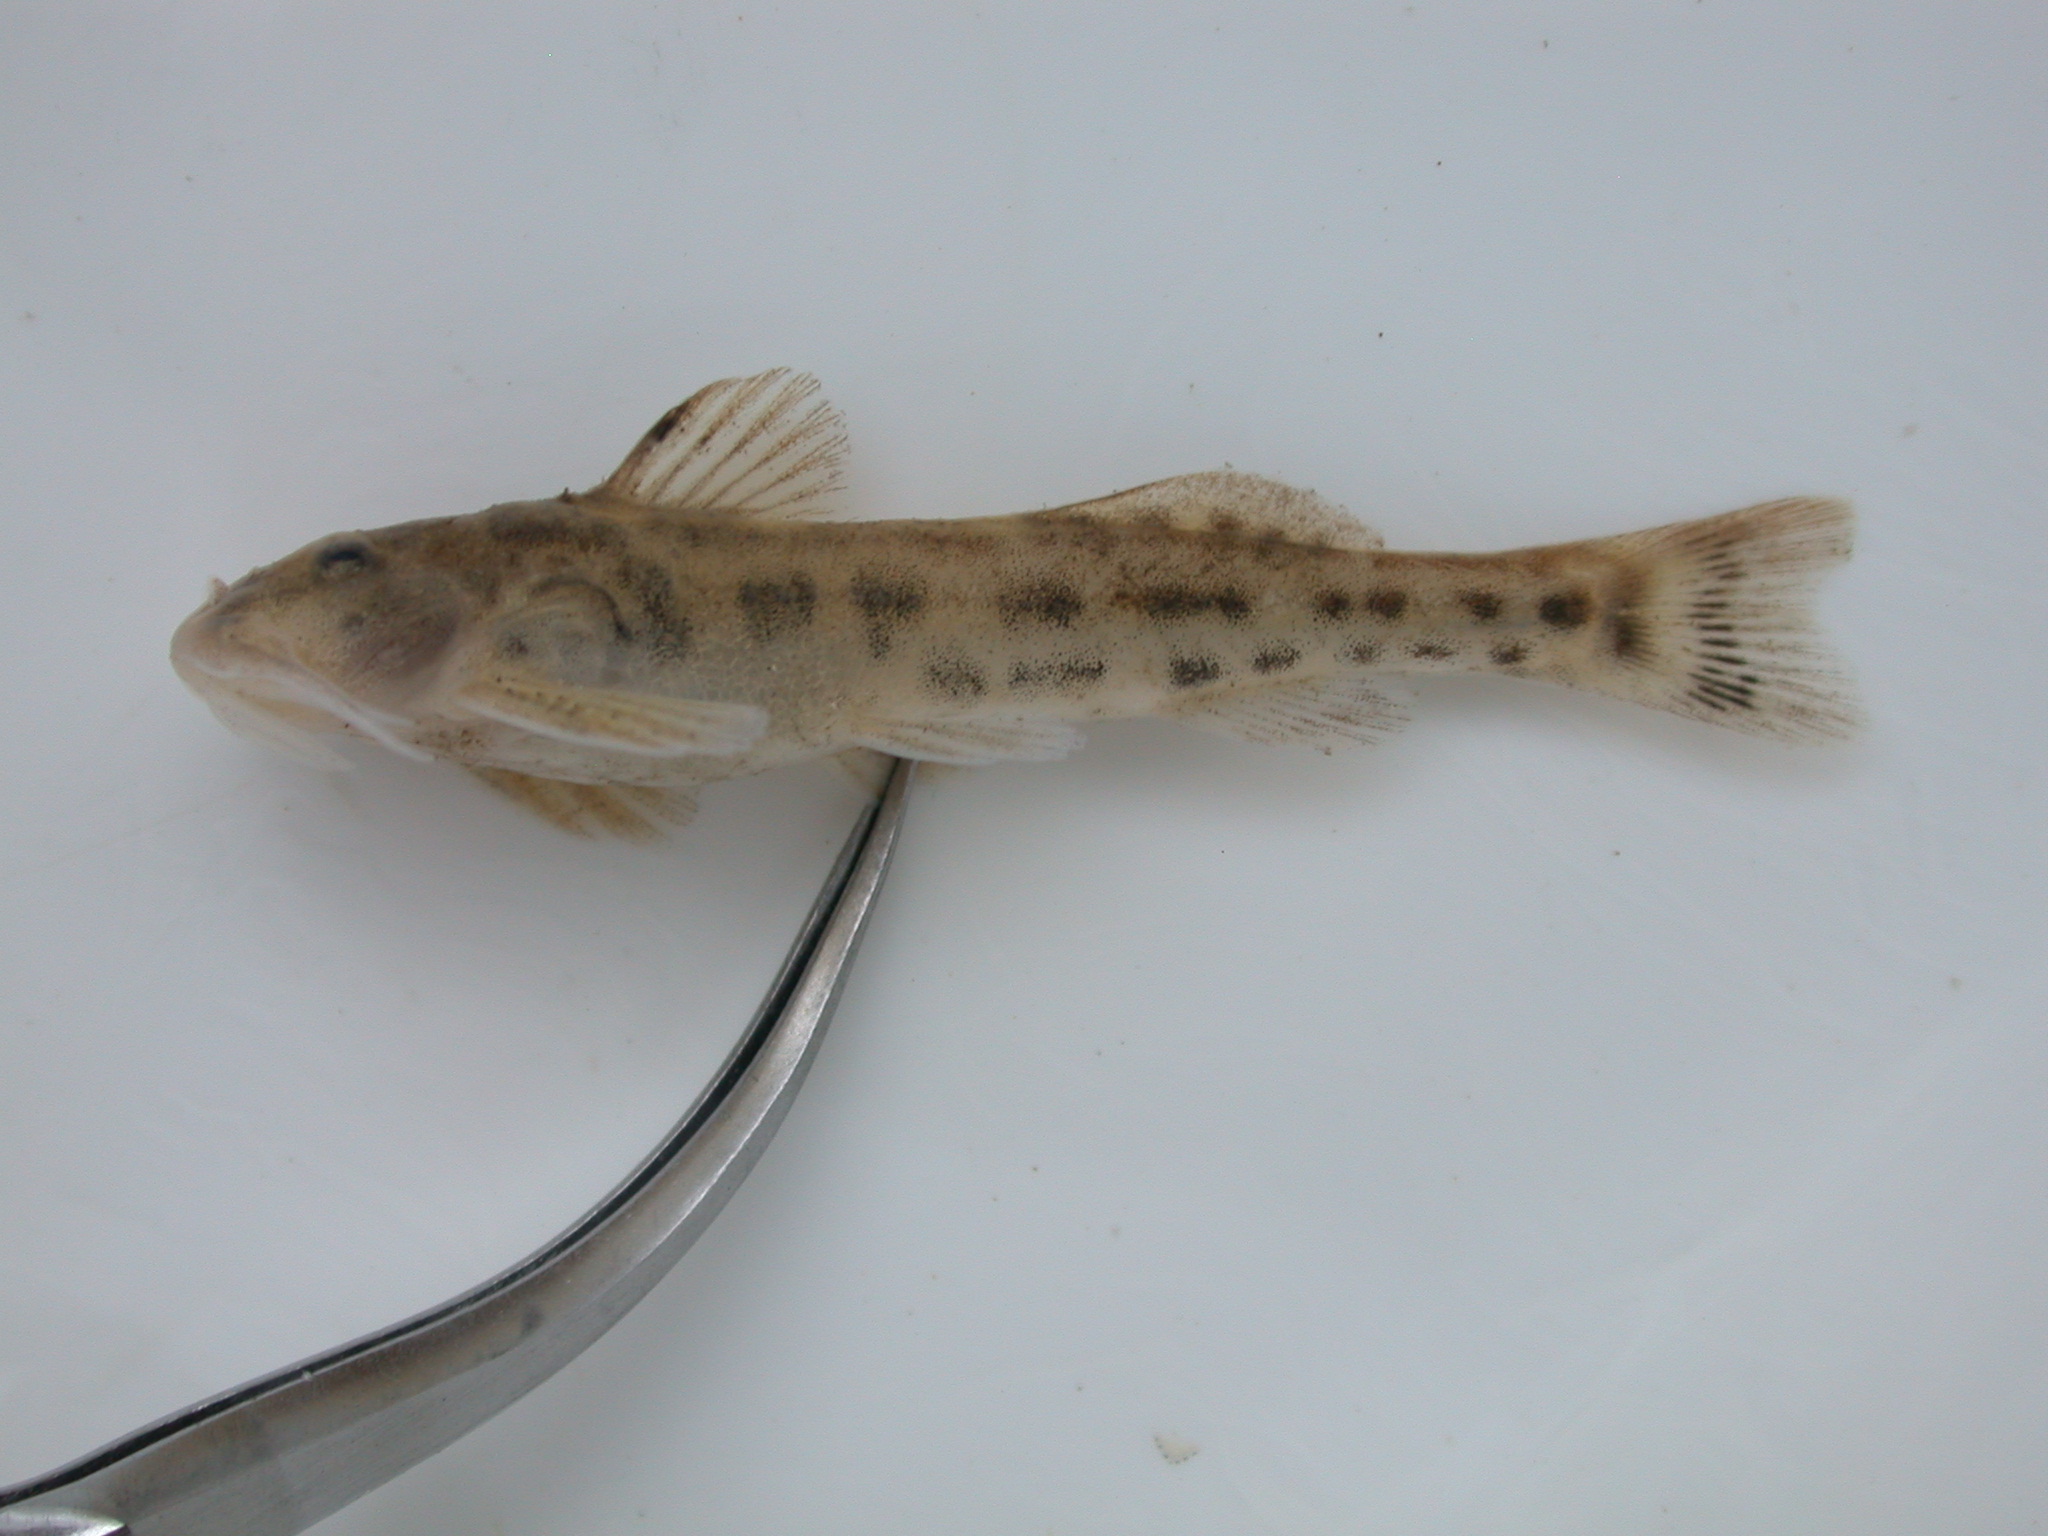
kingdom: Animalia
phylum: Chordata
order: Siluriformes
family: Amphiliidae
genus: Zaireichthys
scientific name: Zaireichthys monomotapa
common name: Eastern sand catlet
